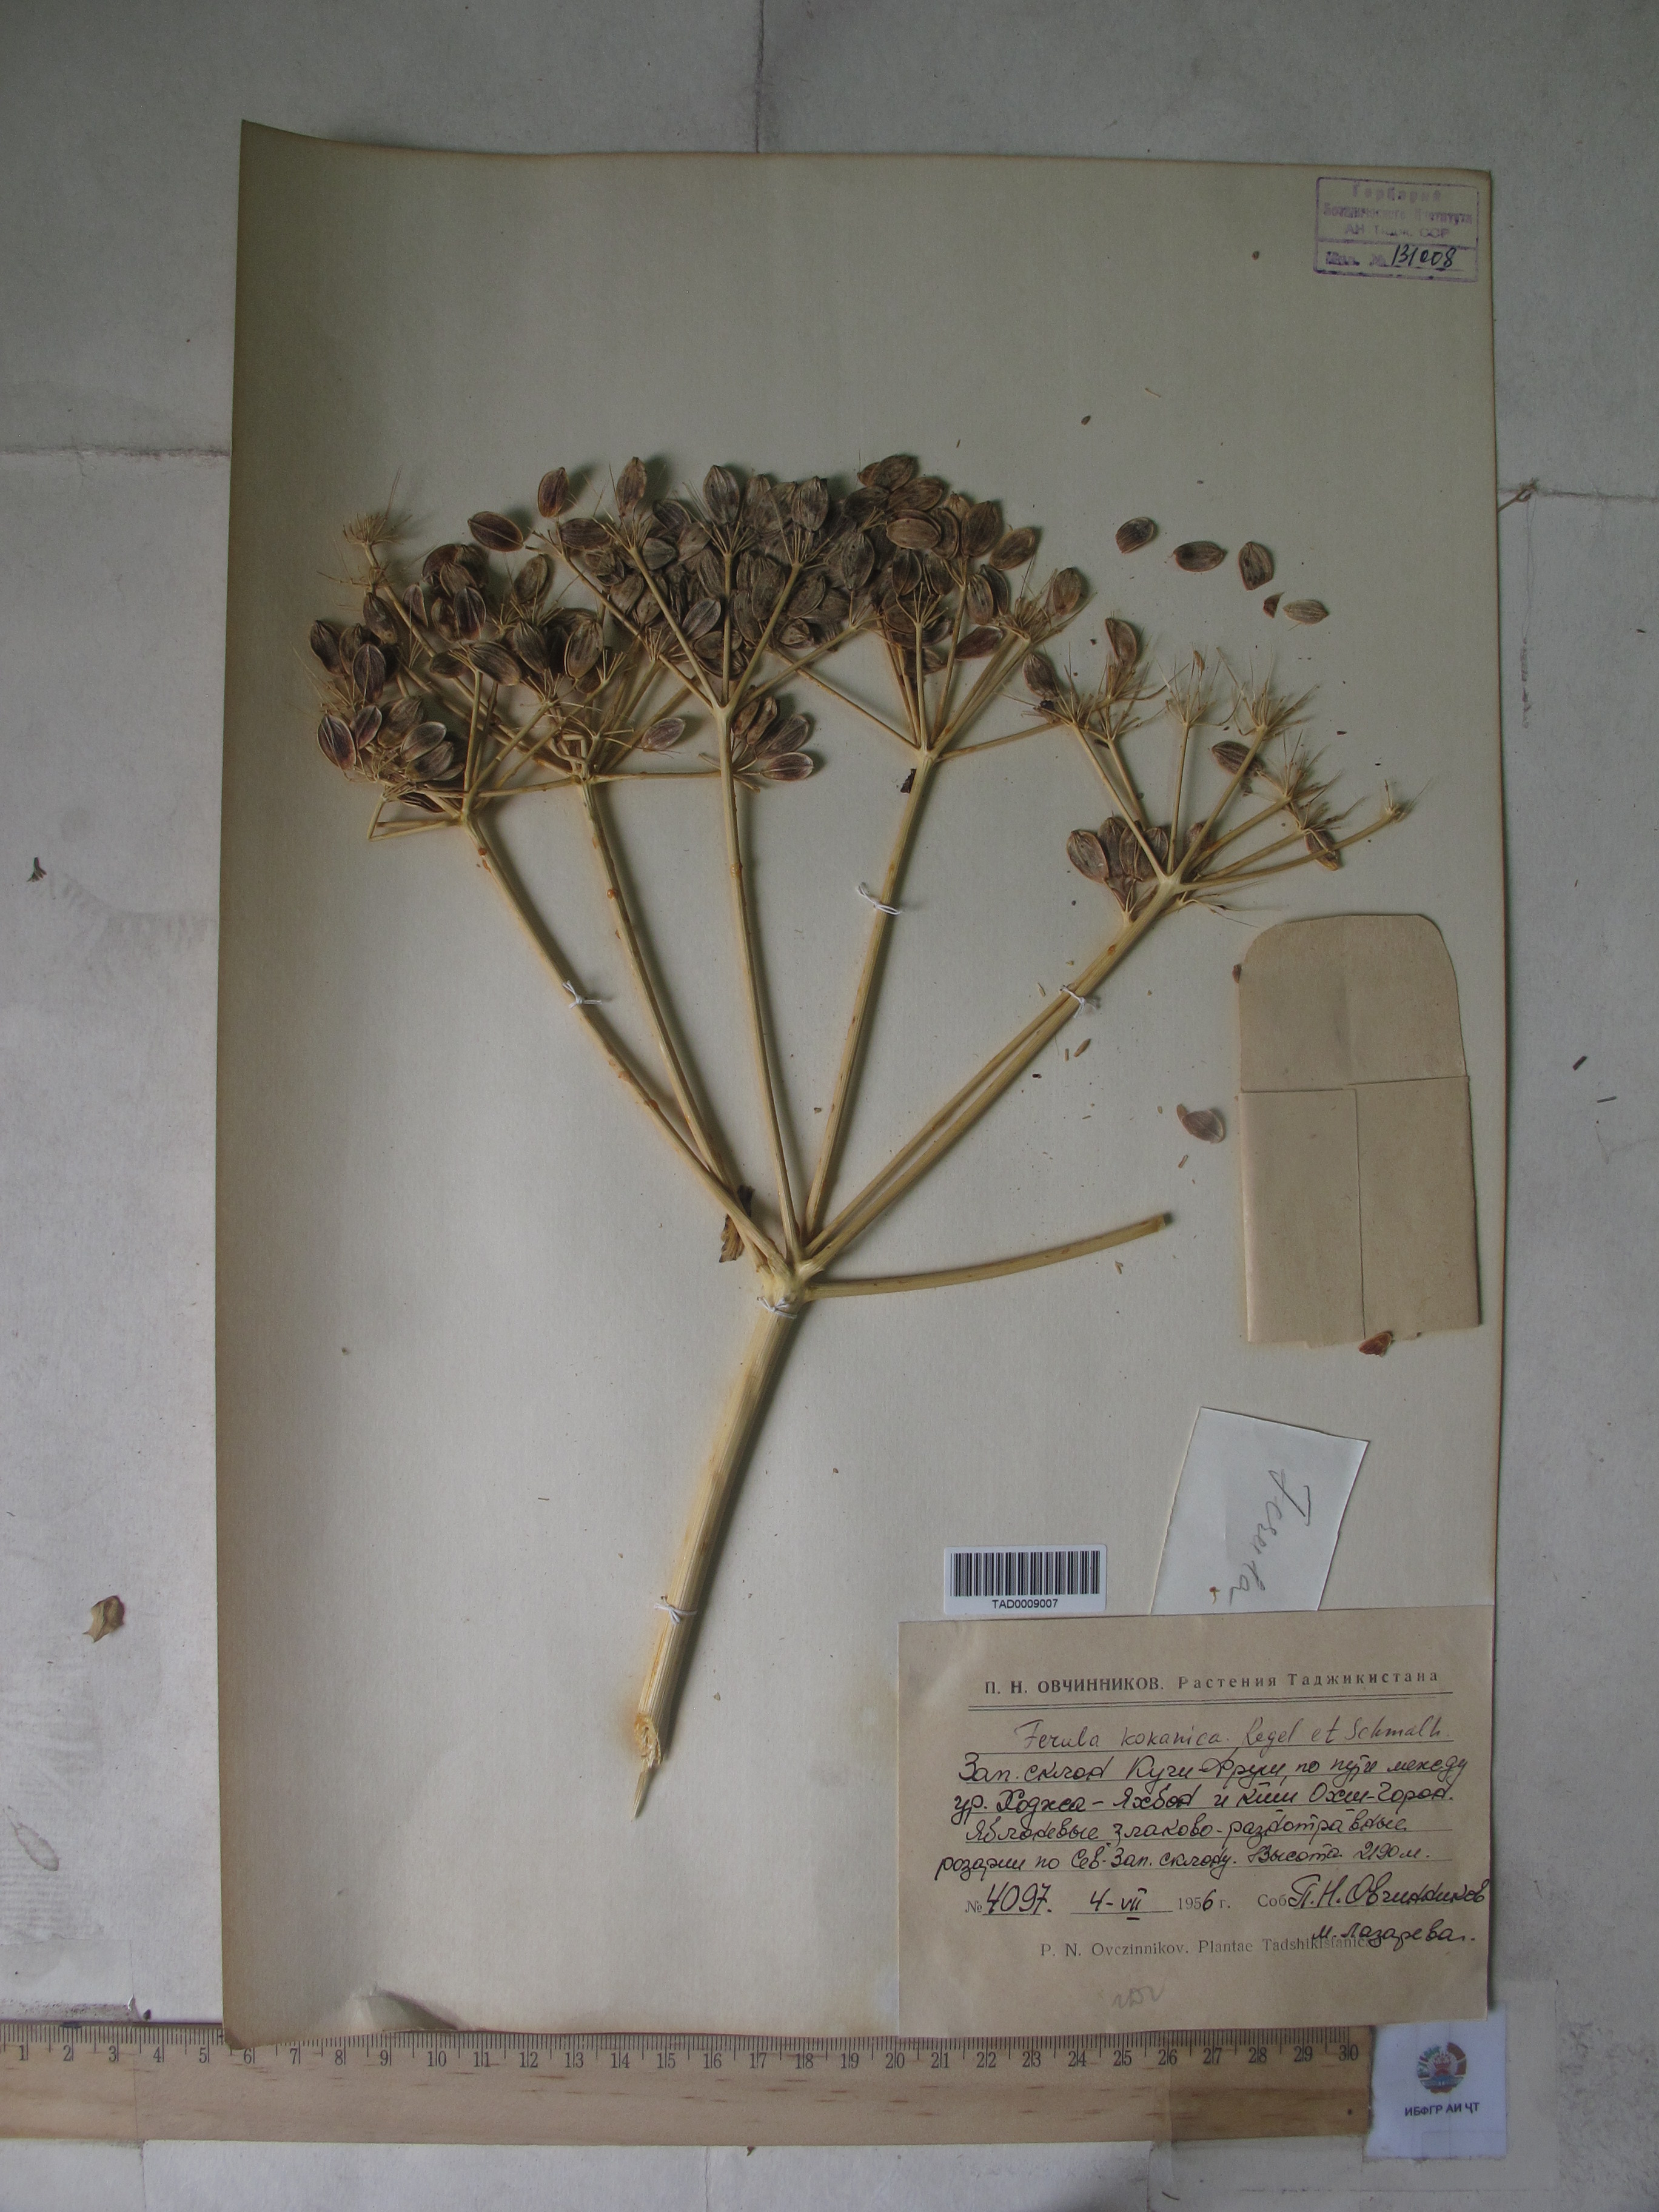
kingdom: Plantae
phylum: Tracheophyta
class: Magnoliopsida
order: Apiales
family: Apiaceae
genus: Ferula
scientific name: Ferula kokanica
